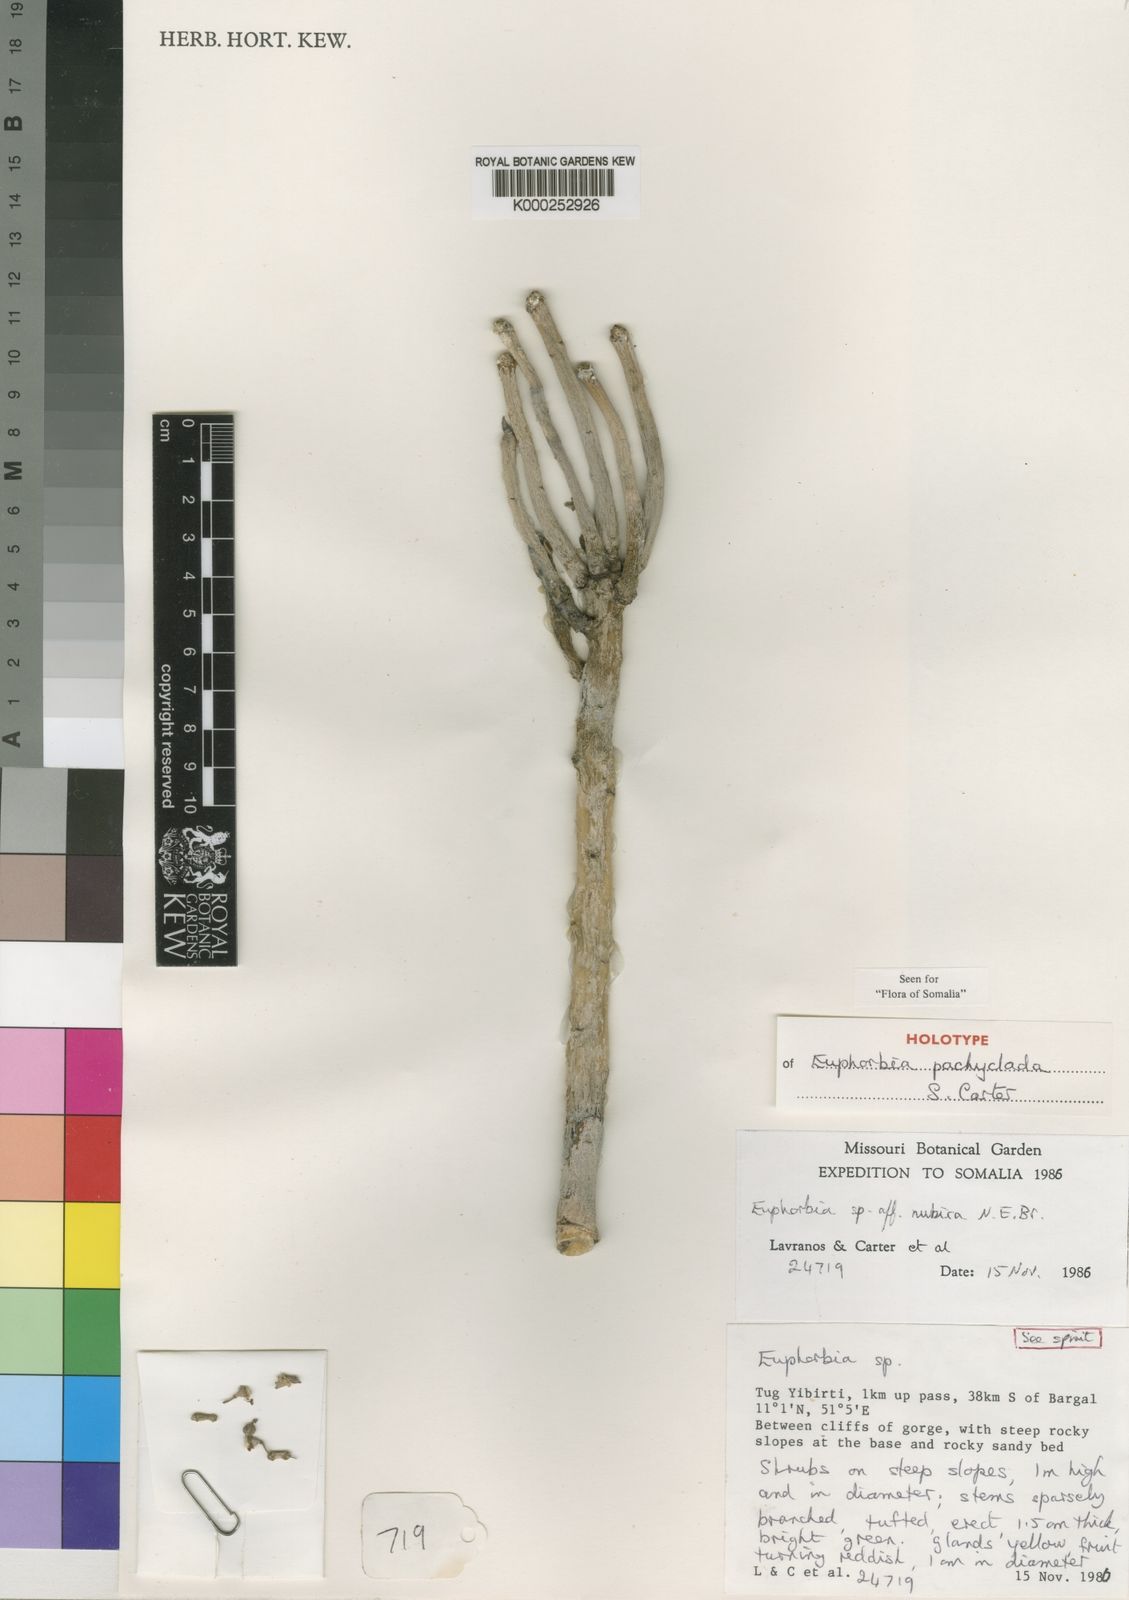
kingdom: Plantae
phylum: Tracheophyta
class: Magnoliopsida
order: Malpighiales
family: Euphorbiaceae
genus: Euphorbia
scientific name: Euphorbia pachyclada
